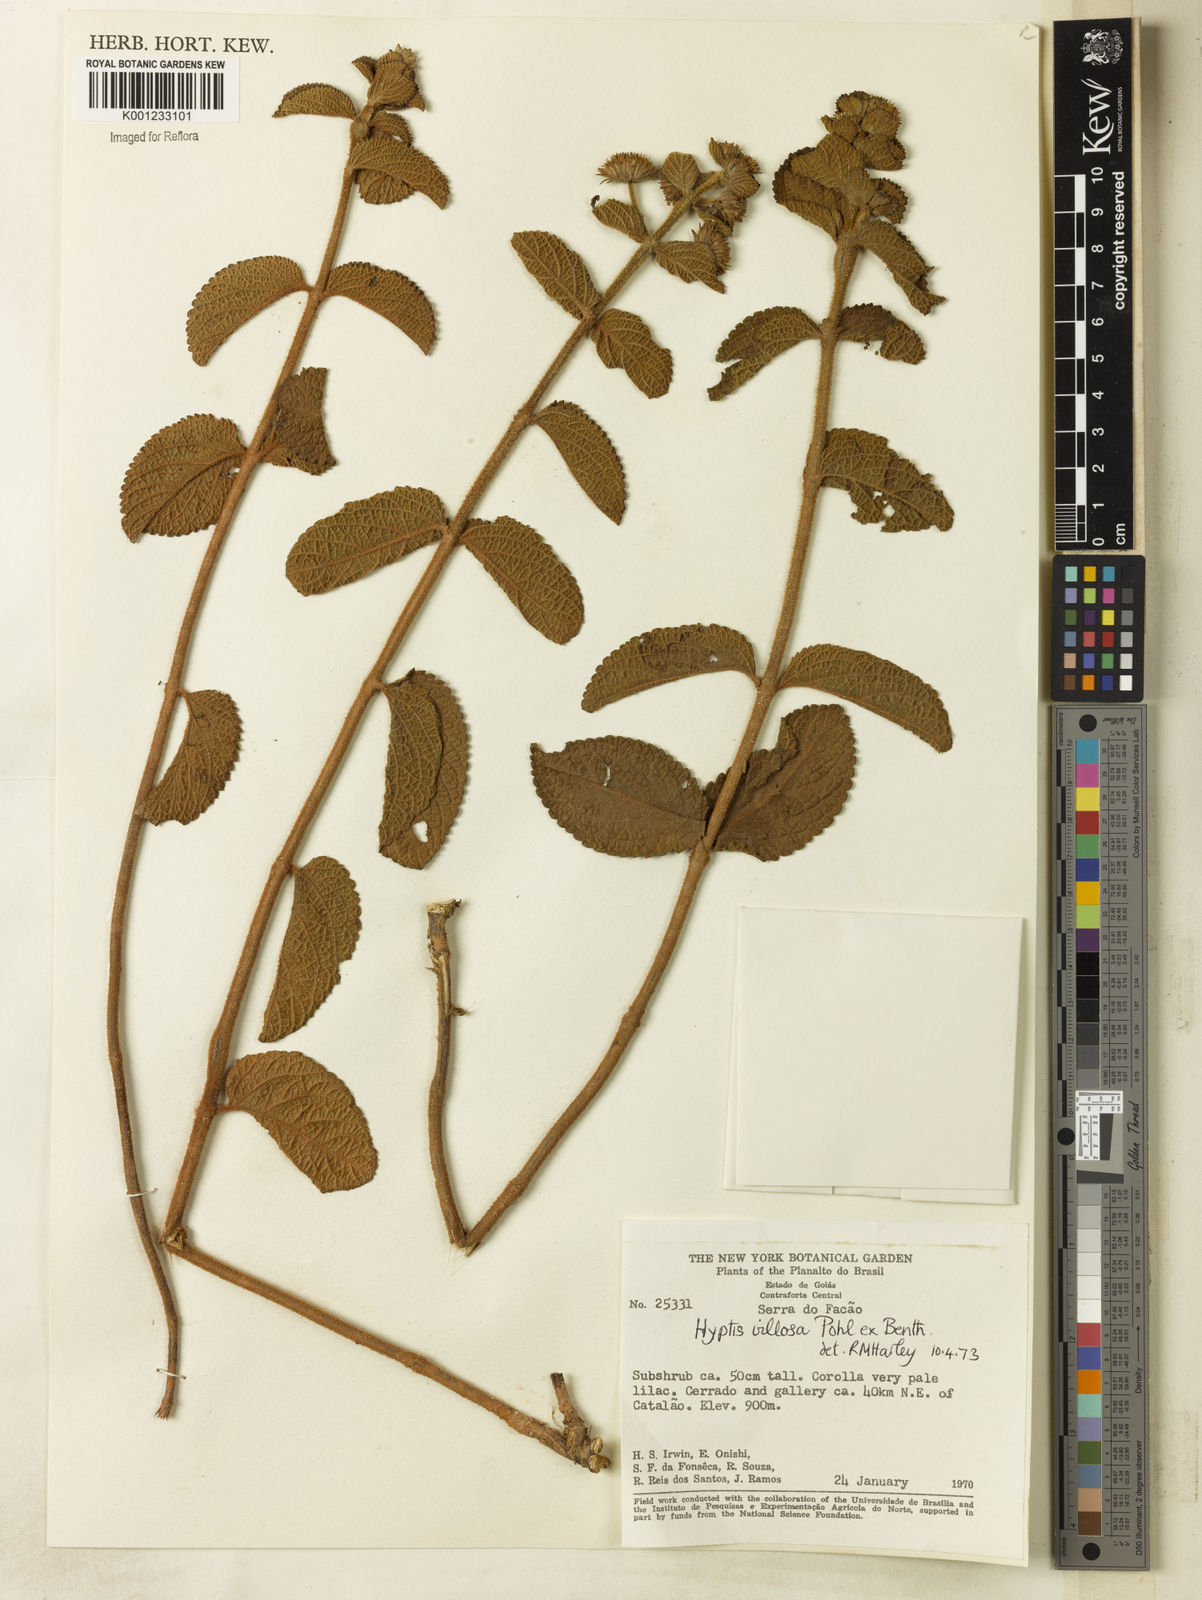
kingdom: Plantae
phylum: Tracheophyta
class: Magnoliopsida
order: Lamiales
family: Lamiaceae
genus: Hyptis
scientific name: Hyptis villosa
